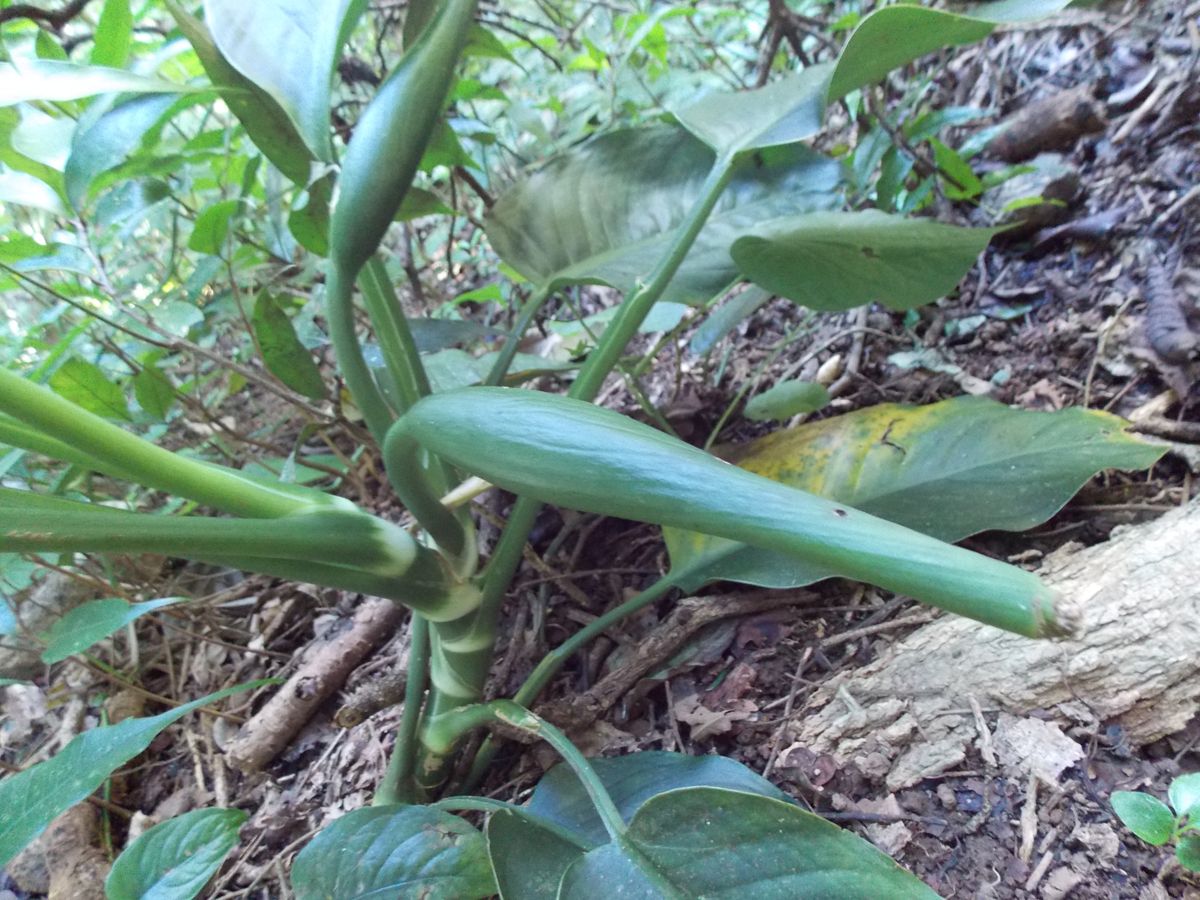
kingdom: Plantae
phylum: Tracheophyta
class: Liliopsida
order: Alismatales
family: Araceae
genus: Dieffenbachia
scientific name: Dieffenbachia oerstedii
